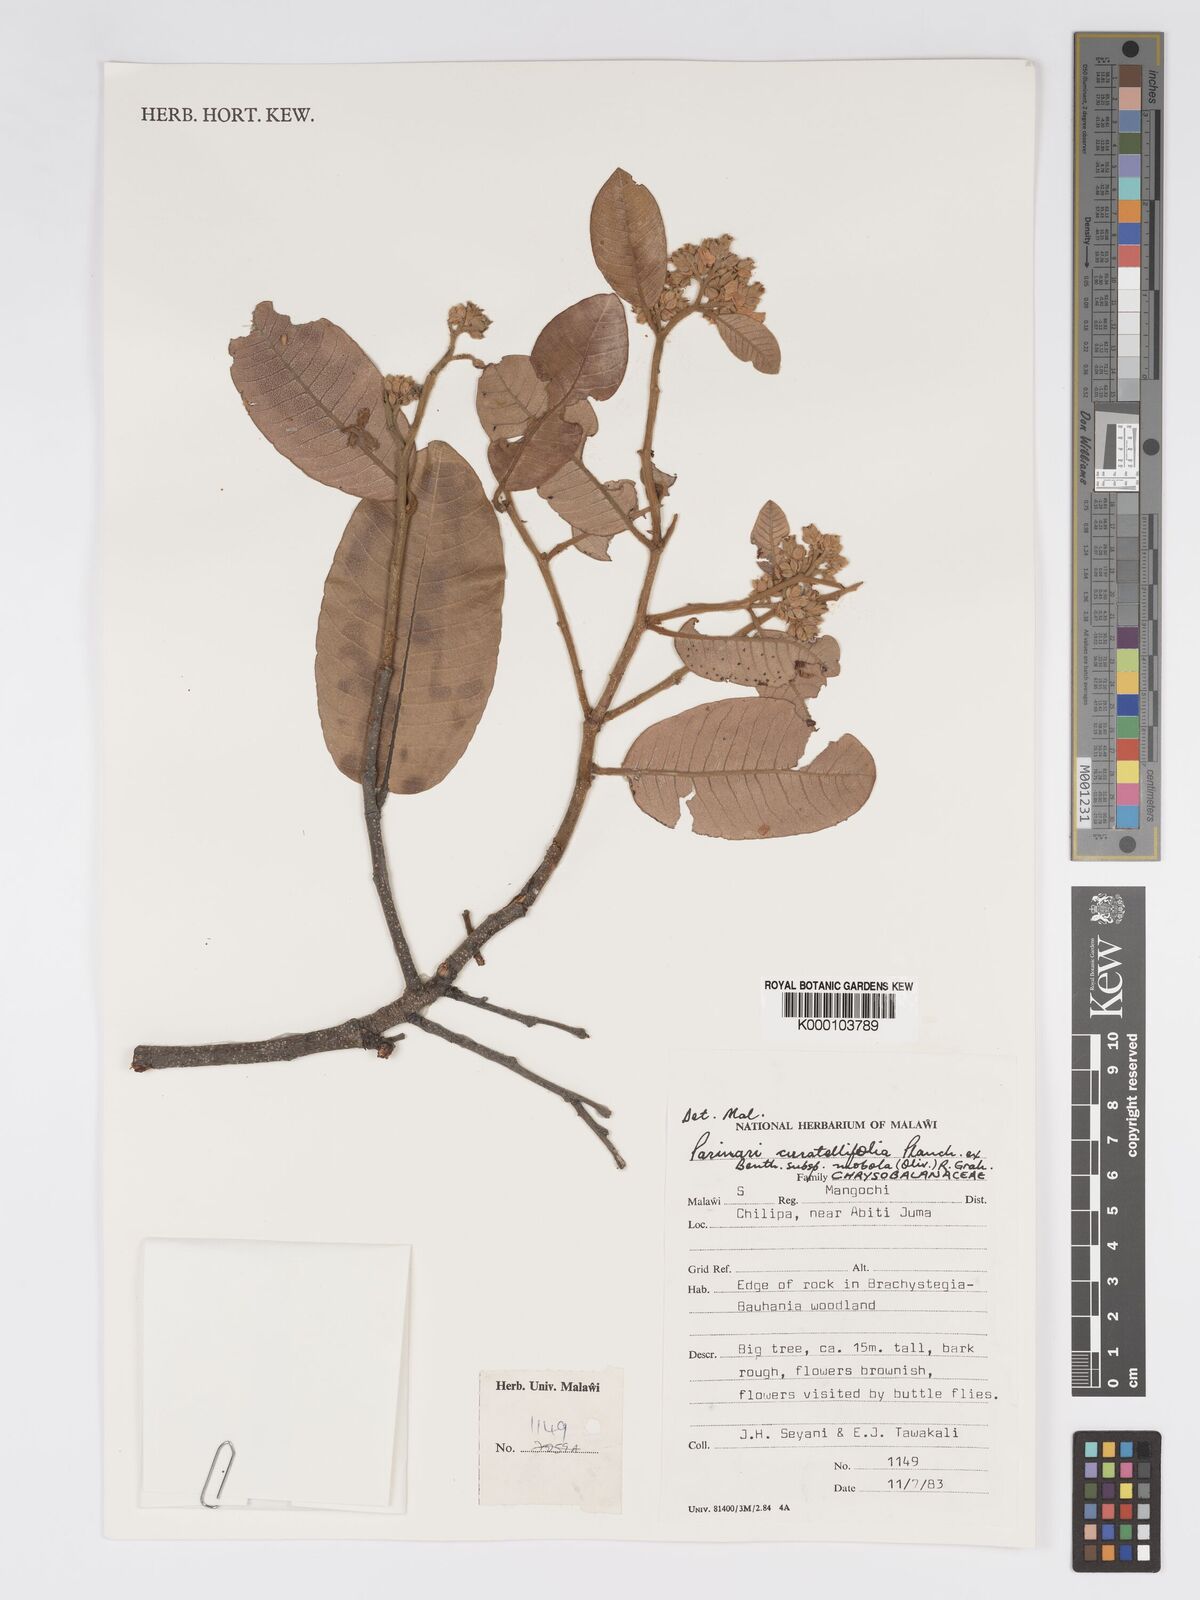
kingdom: Plantae
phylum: Tracheophyta
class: Magnoliopsida
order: Malpighiales
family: Chrysobalanaceae
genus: Parinari
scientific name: Parinari curatellifolia
